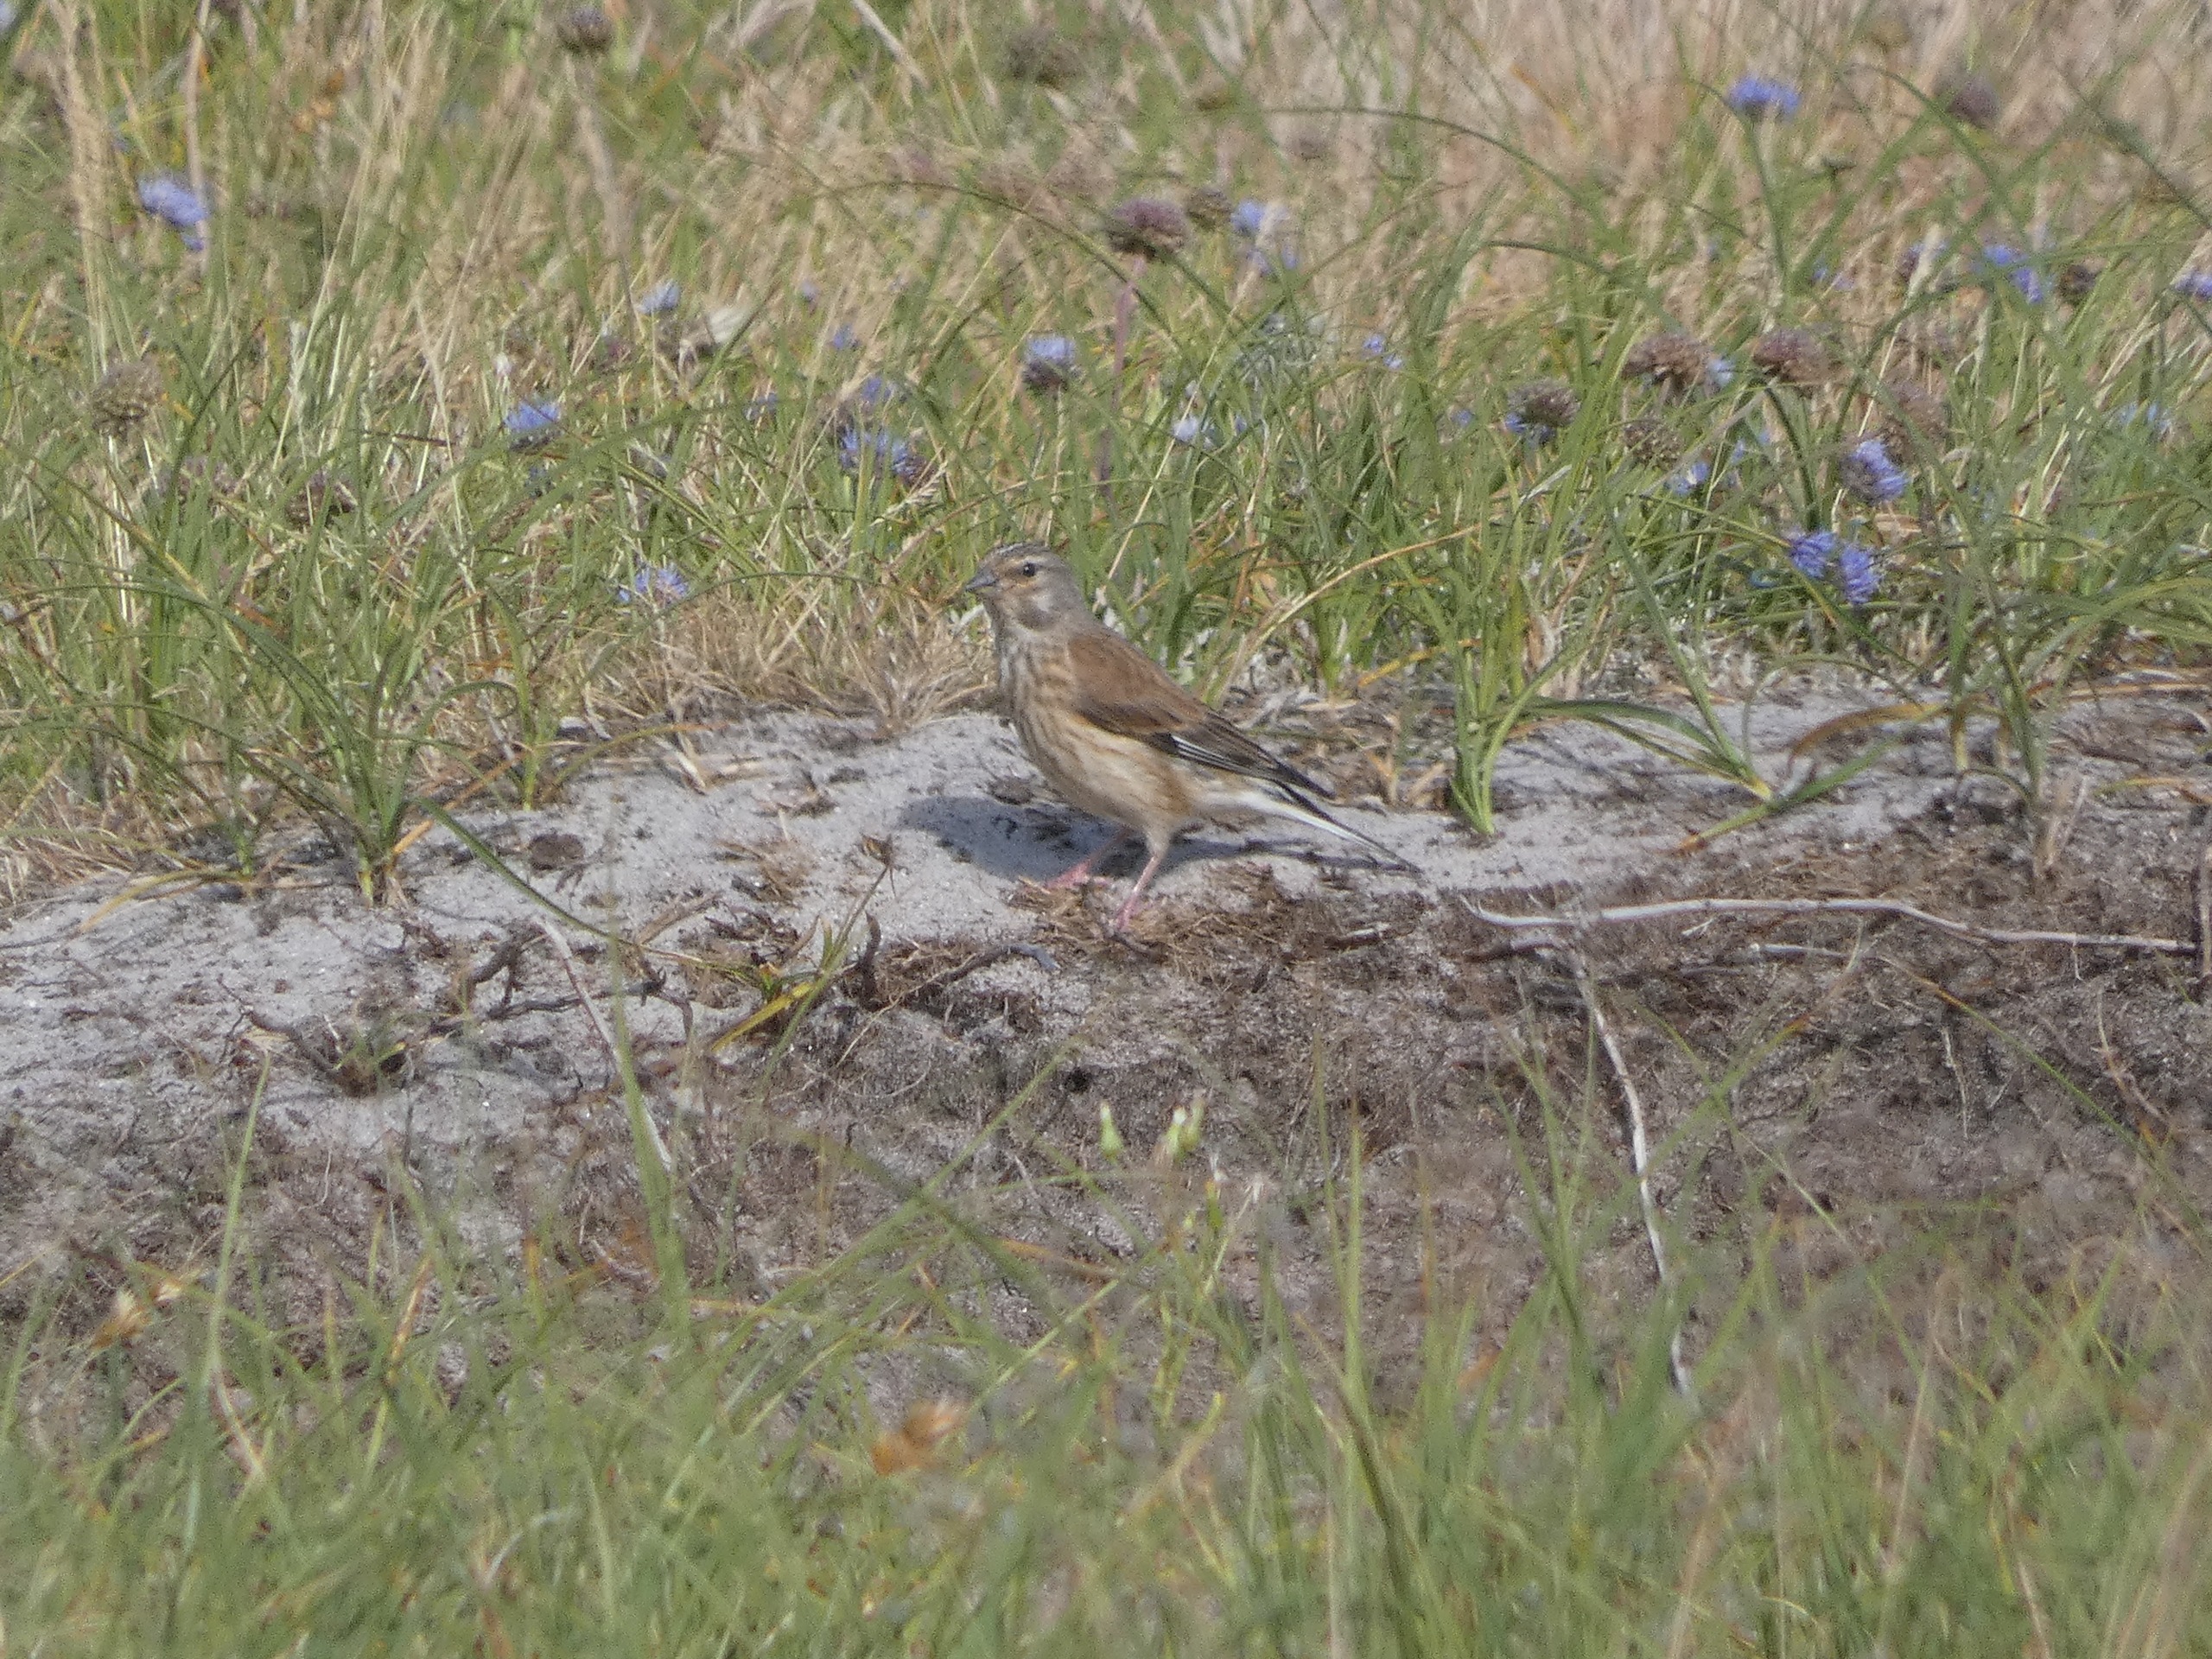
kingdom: Animalia
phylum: Chordata
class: Aves
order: Passeriformes
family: Fringillidae
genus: Linaria
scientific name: Linaria cannabina
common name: Tornirisk
